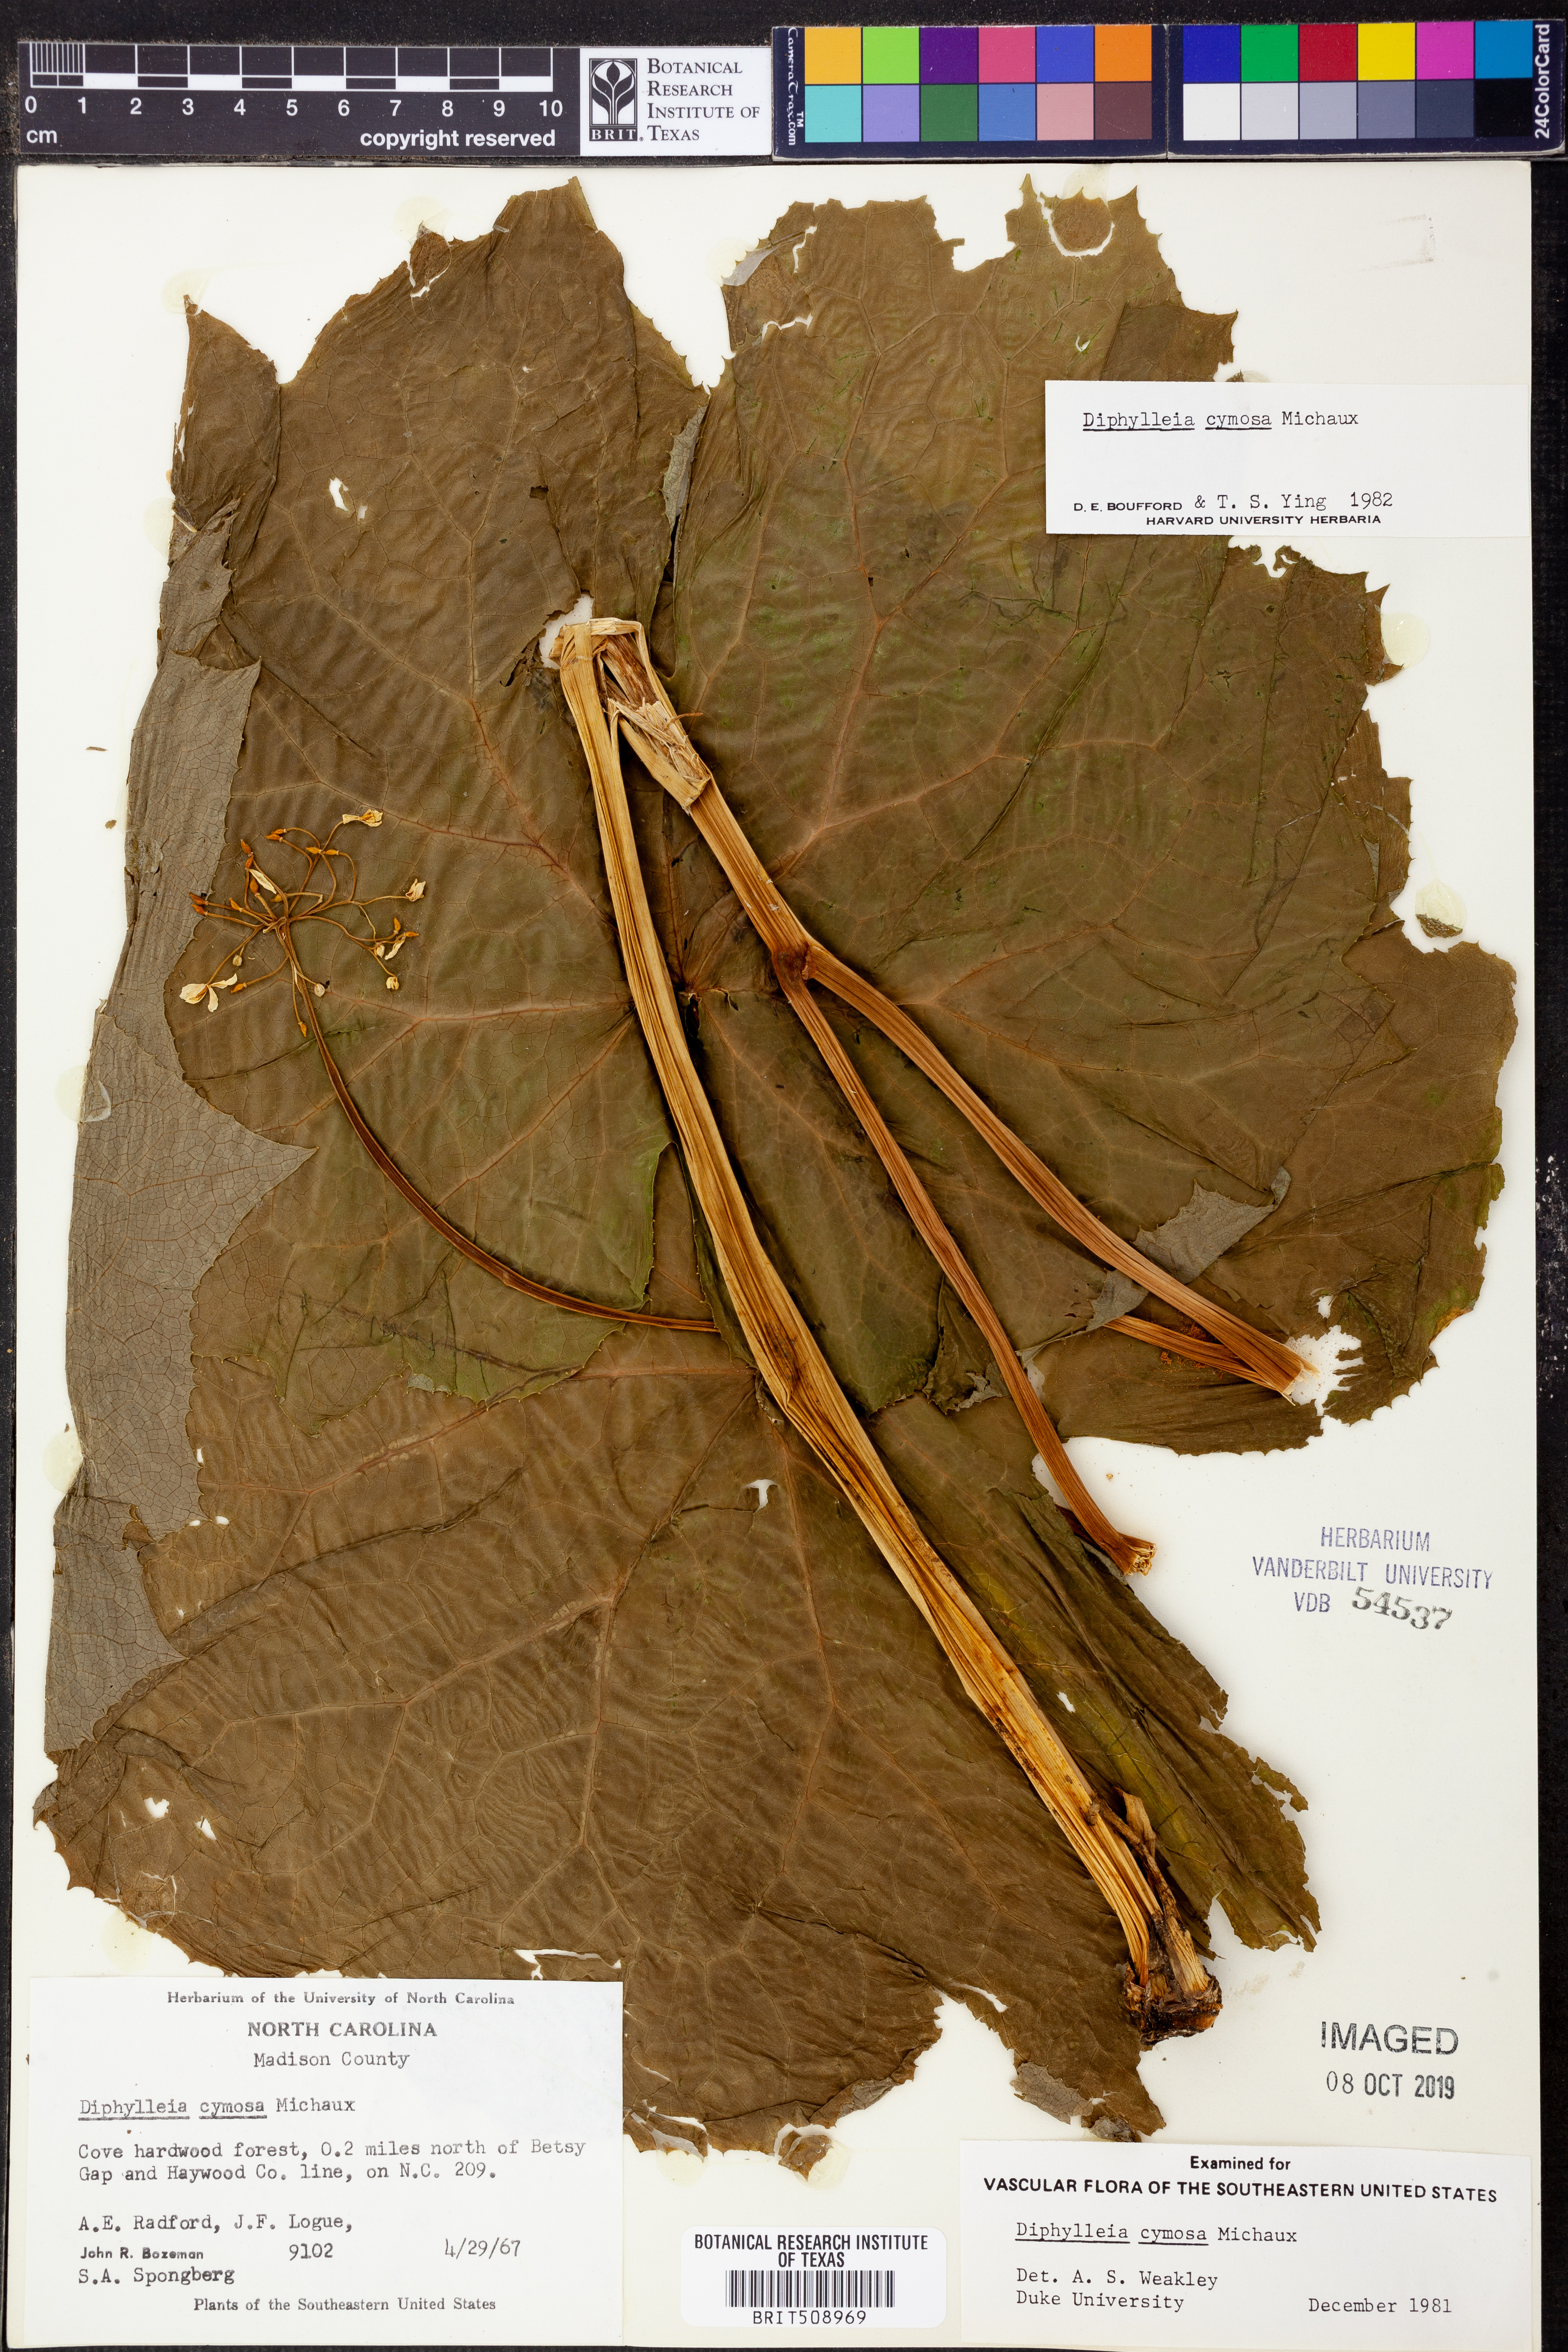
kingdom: Plantae
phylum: Tracheophyta
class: Magnoliopsida
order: Ranunculales
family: Berberidaceae
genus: Diphylleia
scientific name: Diphylleia cymosa
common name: Umbrella-leaf
